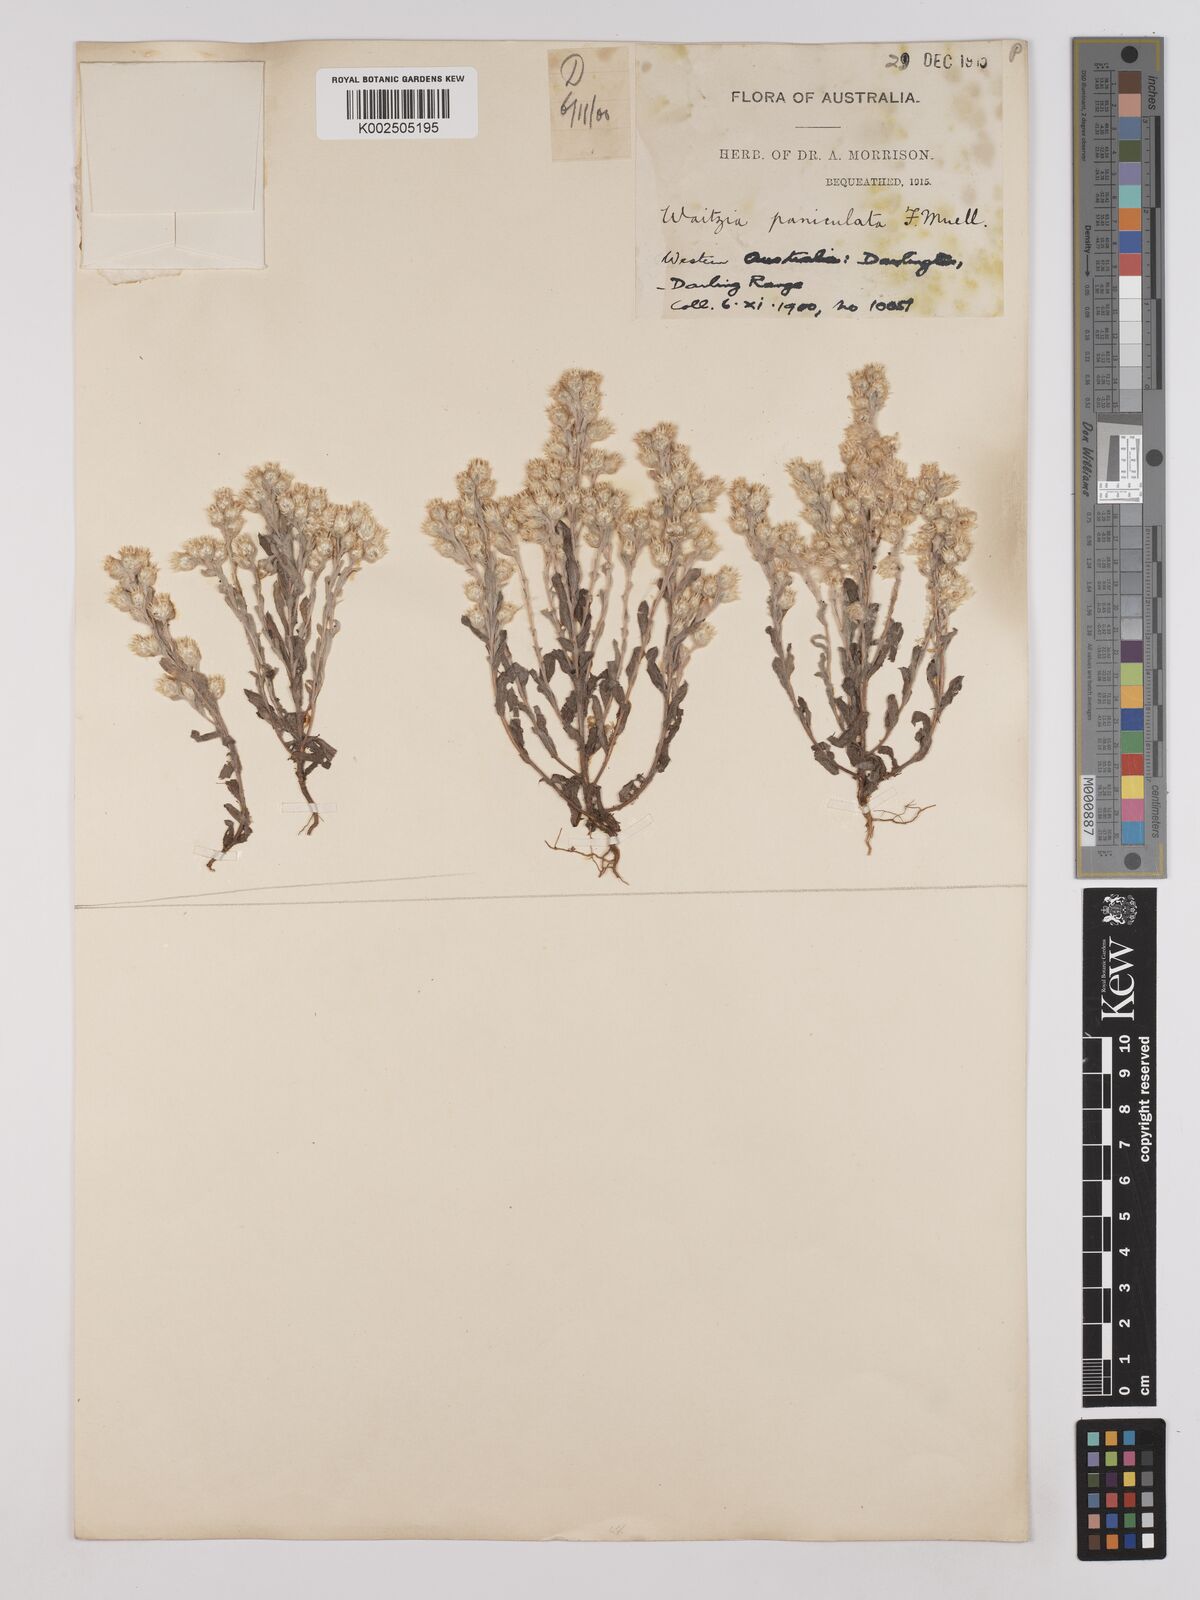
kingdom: Plantae
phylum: Tracheophyta
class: Magnoliopsida
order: Asterales
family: Asteraceae
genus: Pterochaeta
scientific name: Pterochaeta paniculata
